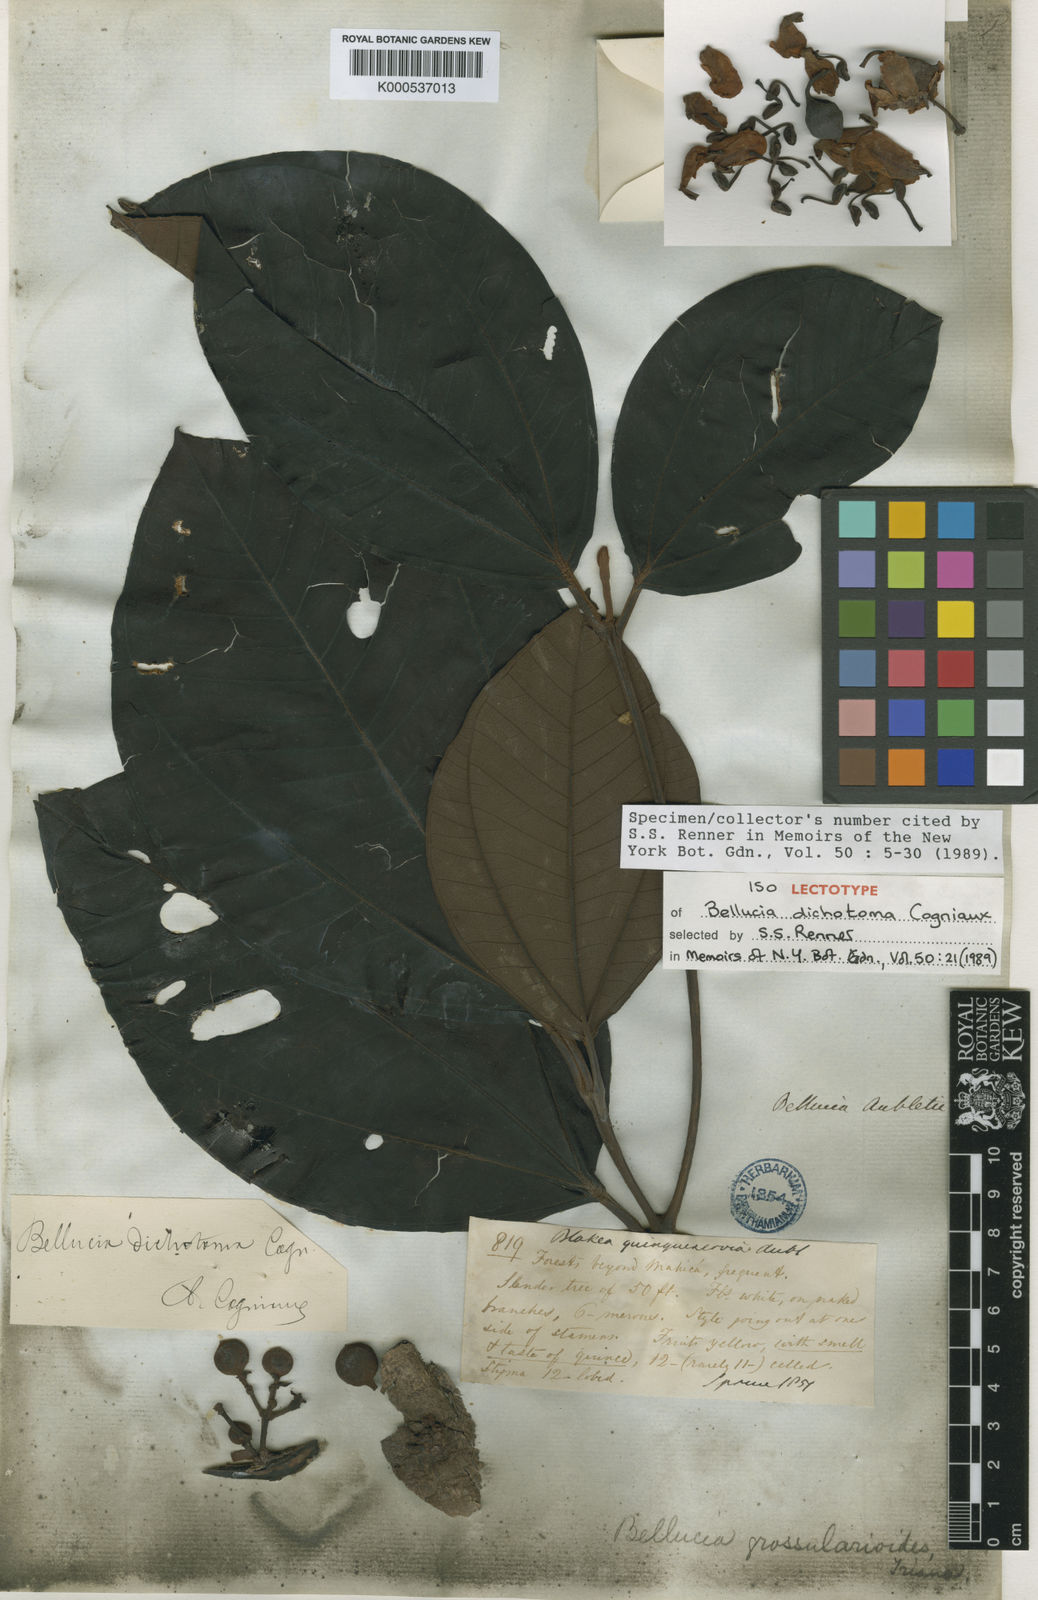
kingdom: Plantae
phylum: Tracheophyta
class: Magnoliopsida
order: Myrtales
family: Melastomataceae
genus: Bellucia
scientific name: Bellucia imperialis
